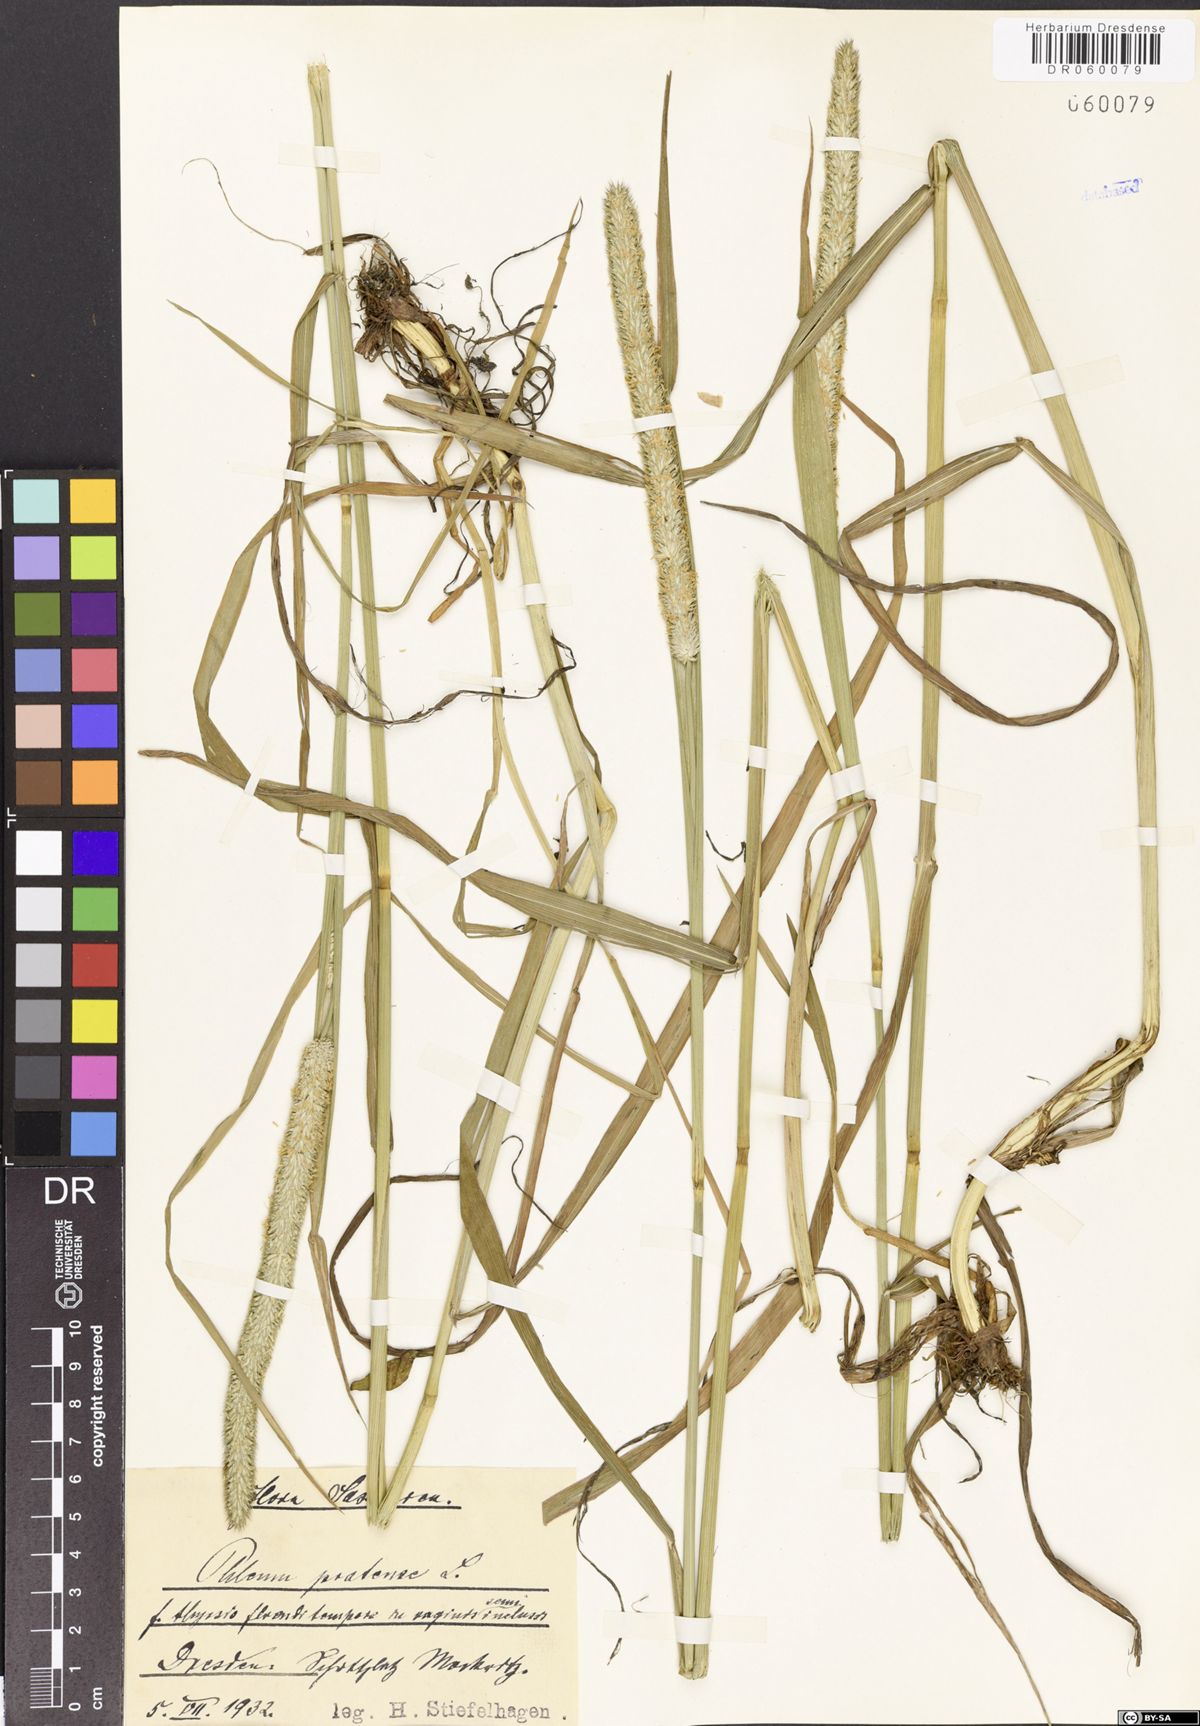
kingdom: Plantae
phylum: Tracheophyta
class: Liliopsida
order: Poales
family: Poaceae
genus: Phleum
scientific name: Phleum pratense
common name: Timothy grass
